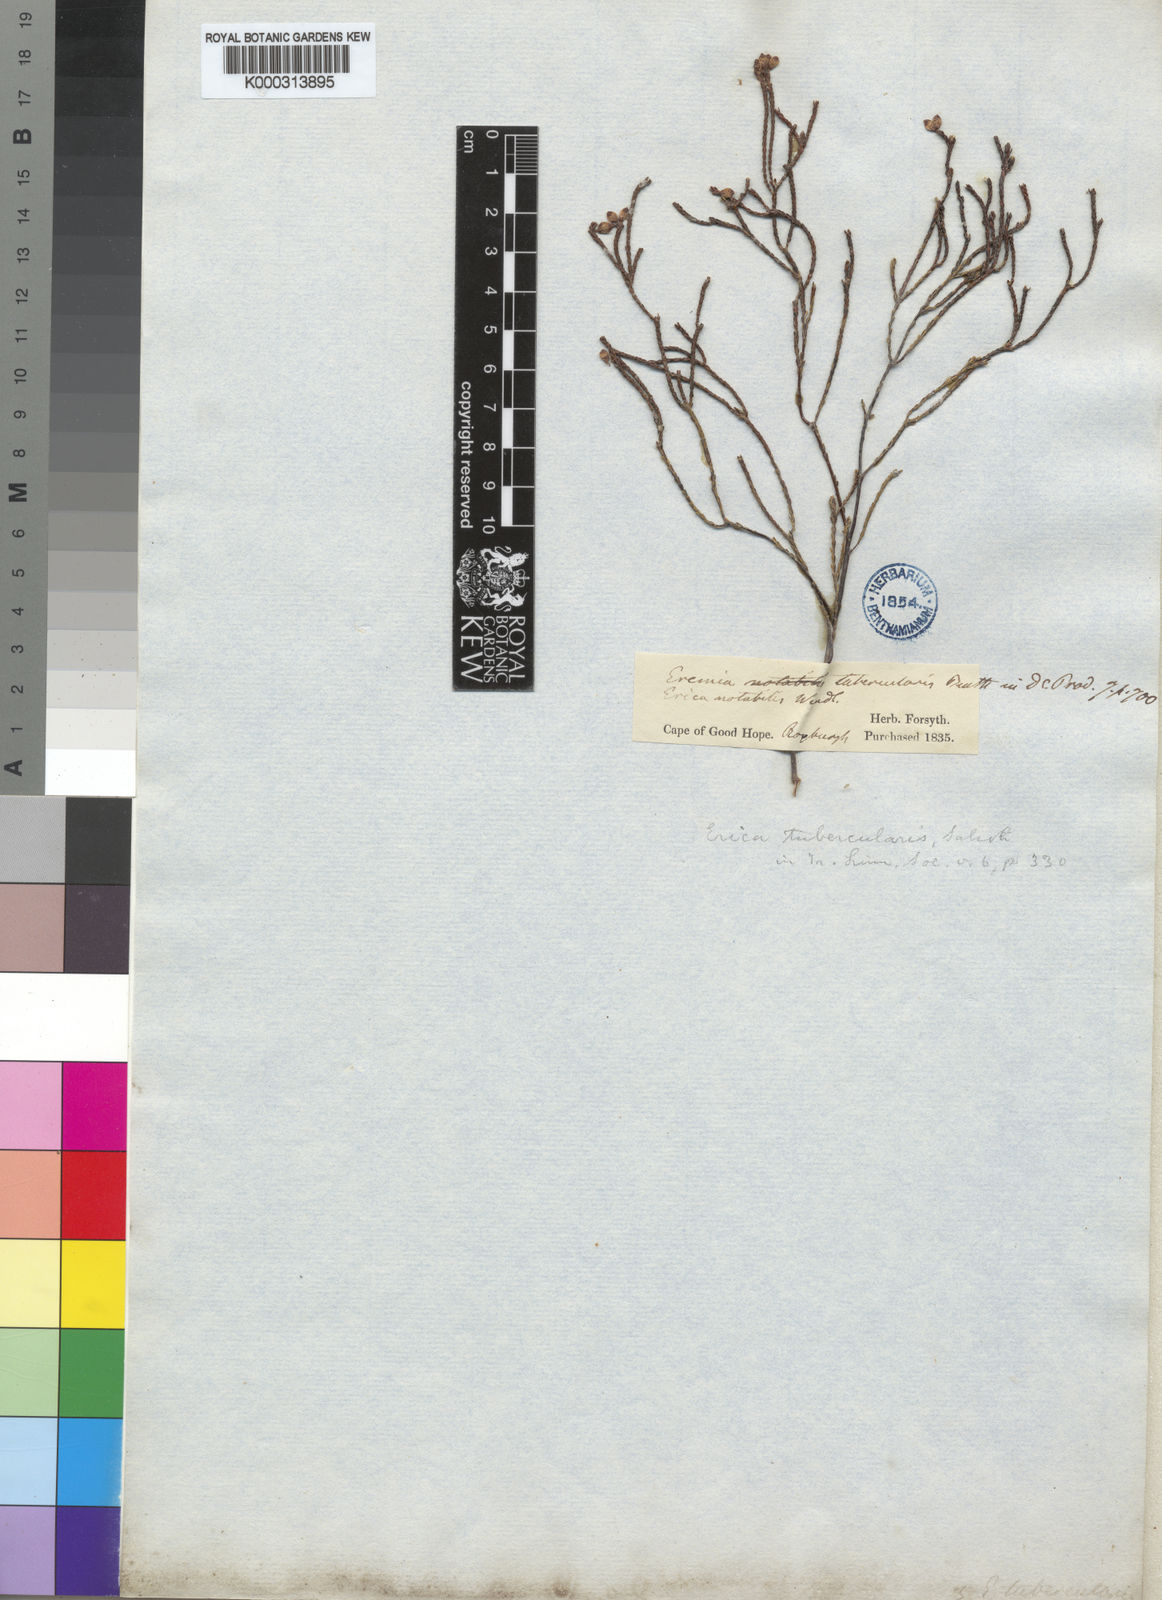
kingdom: Plantae
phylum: Tracheophyta
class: Magnoliopsida
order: Ericales
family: Ericaceae
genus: Erica
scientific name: Erica tubercularis
